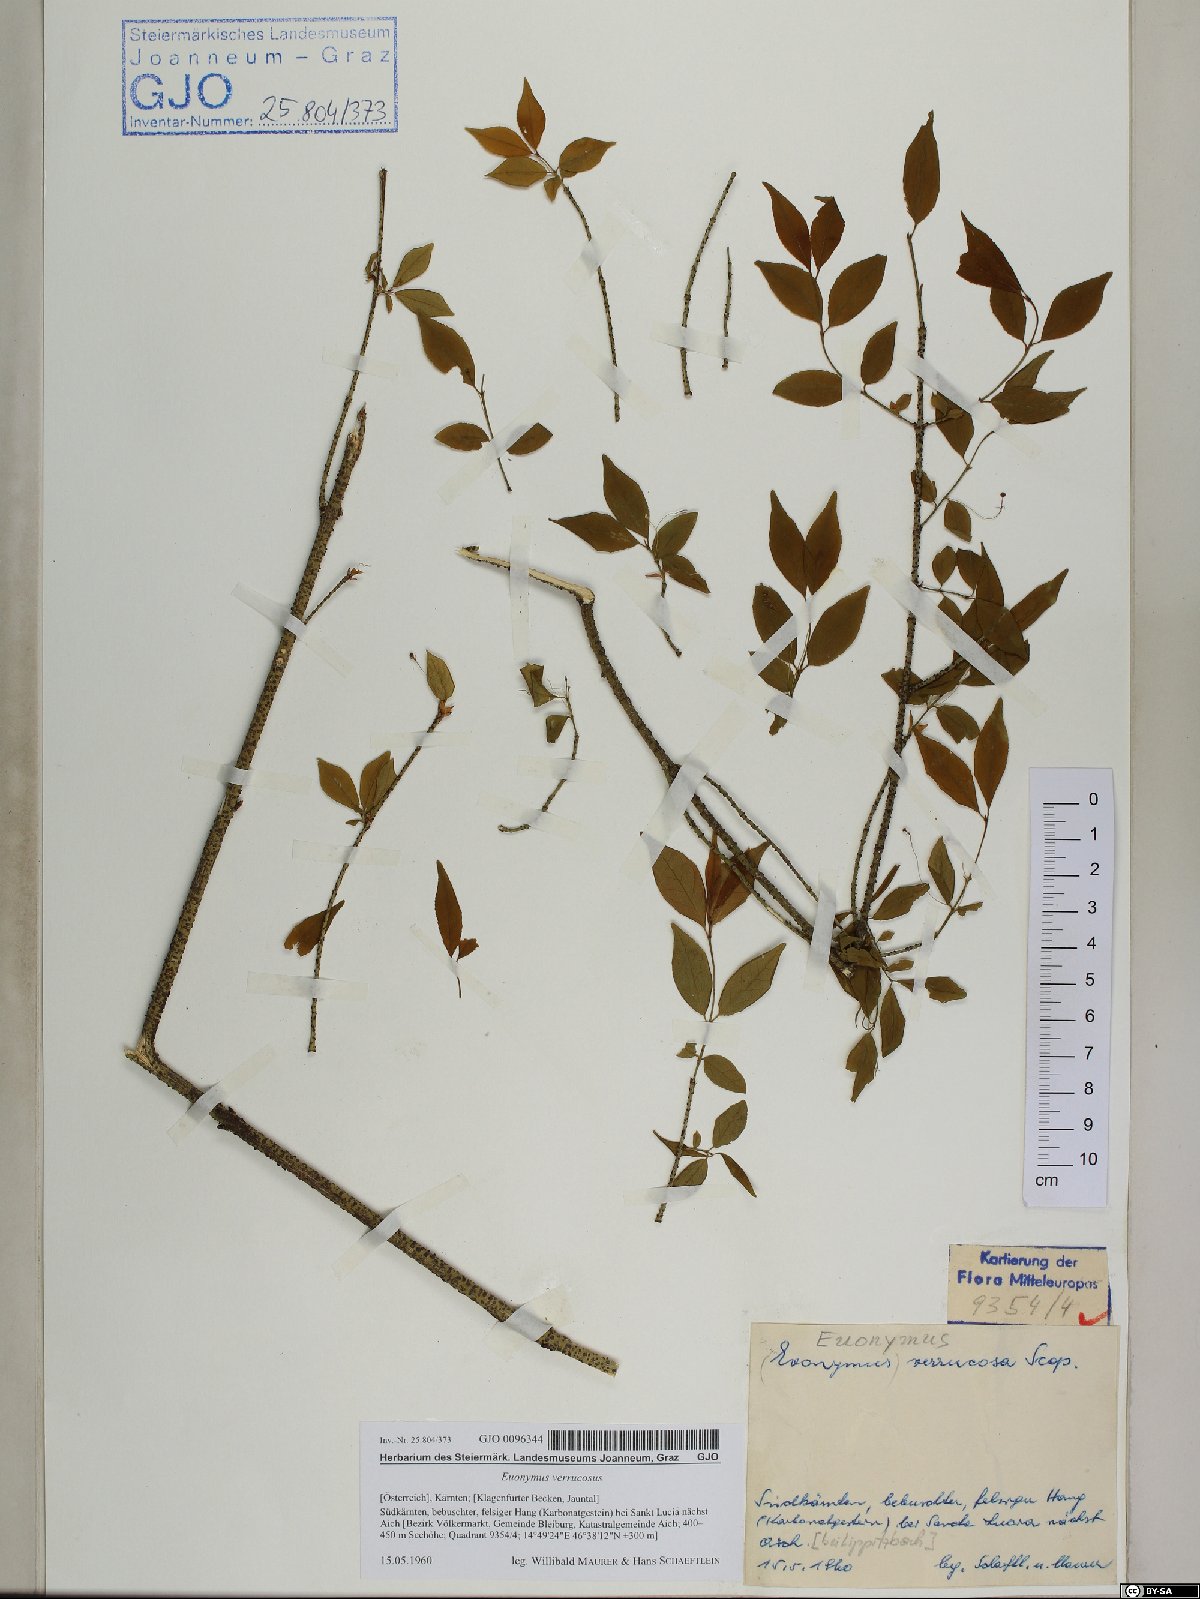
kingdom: Plantae
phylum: Tracheophyta
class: Magnoliopsida
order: Celastrales
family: Celastraceae
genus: Euonymus
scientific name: Euonymus verrucosus
